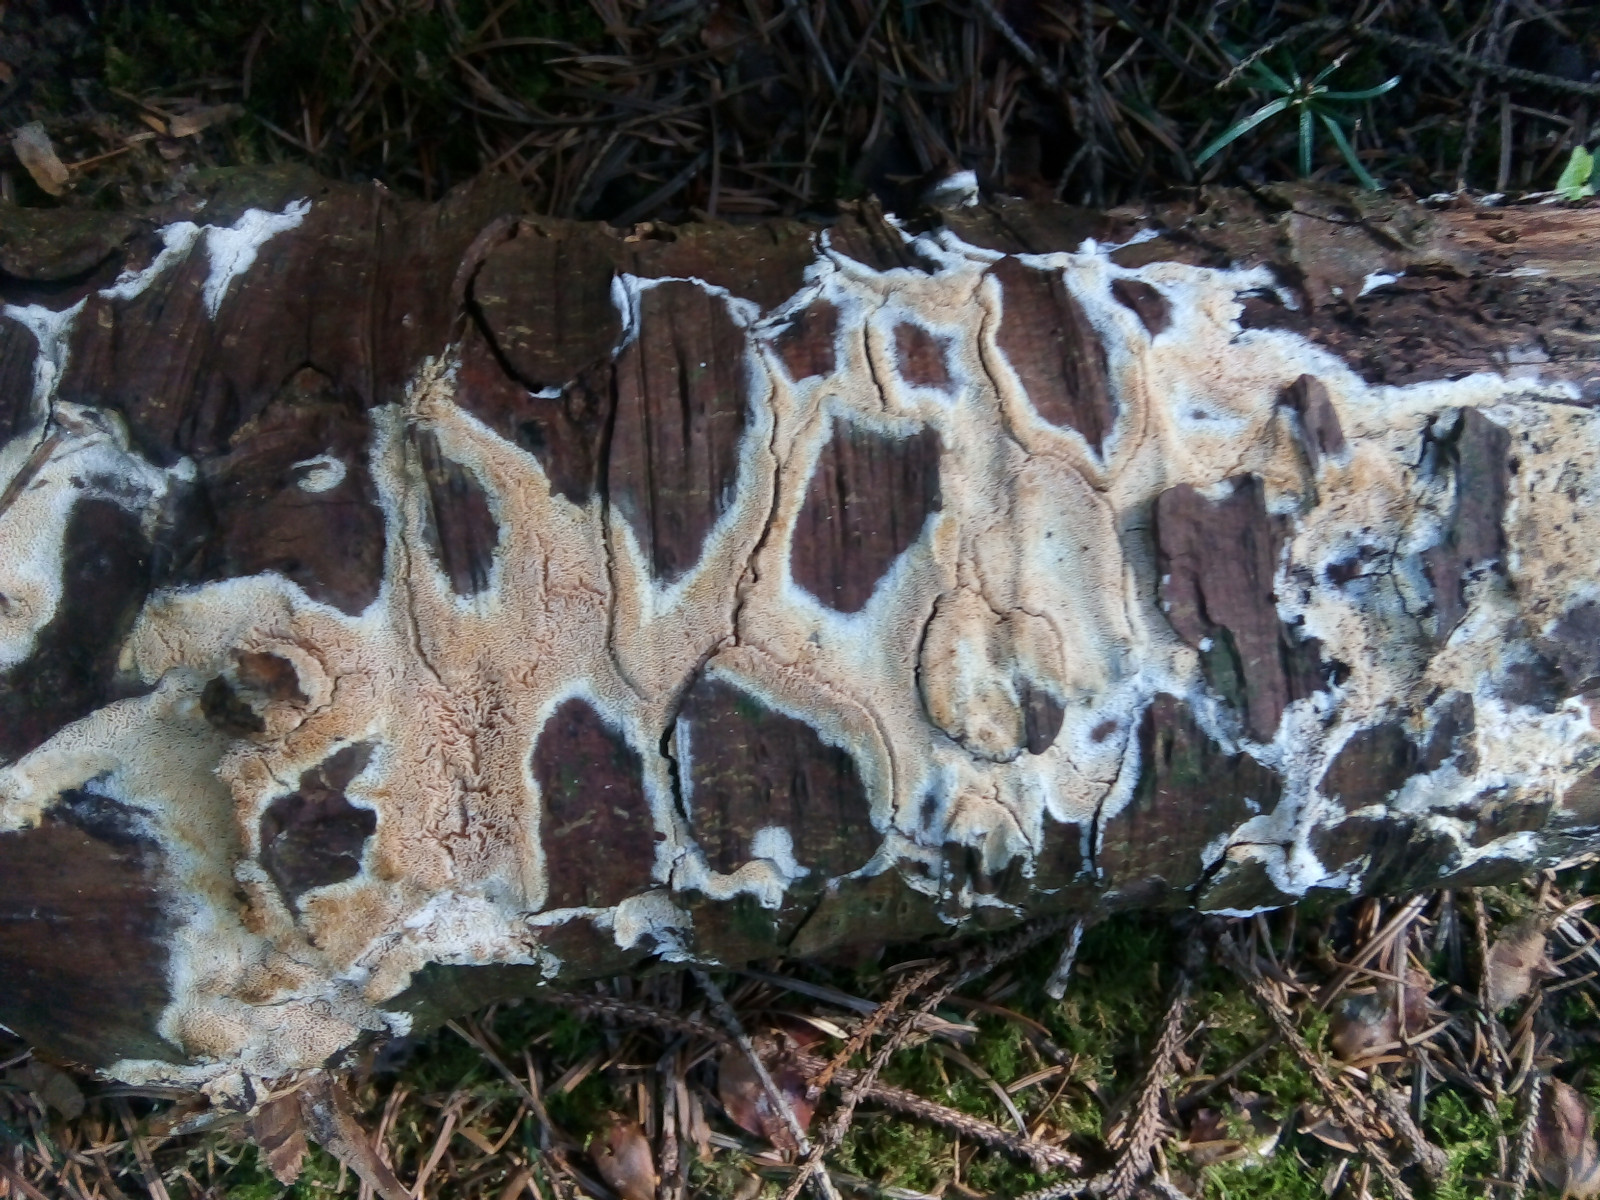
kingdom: Fungi
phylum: Basidiomycota
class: Agaricomycetes
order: Polyporales
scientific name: Polyporales
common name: poresvampordenen
